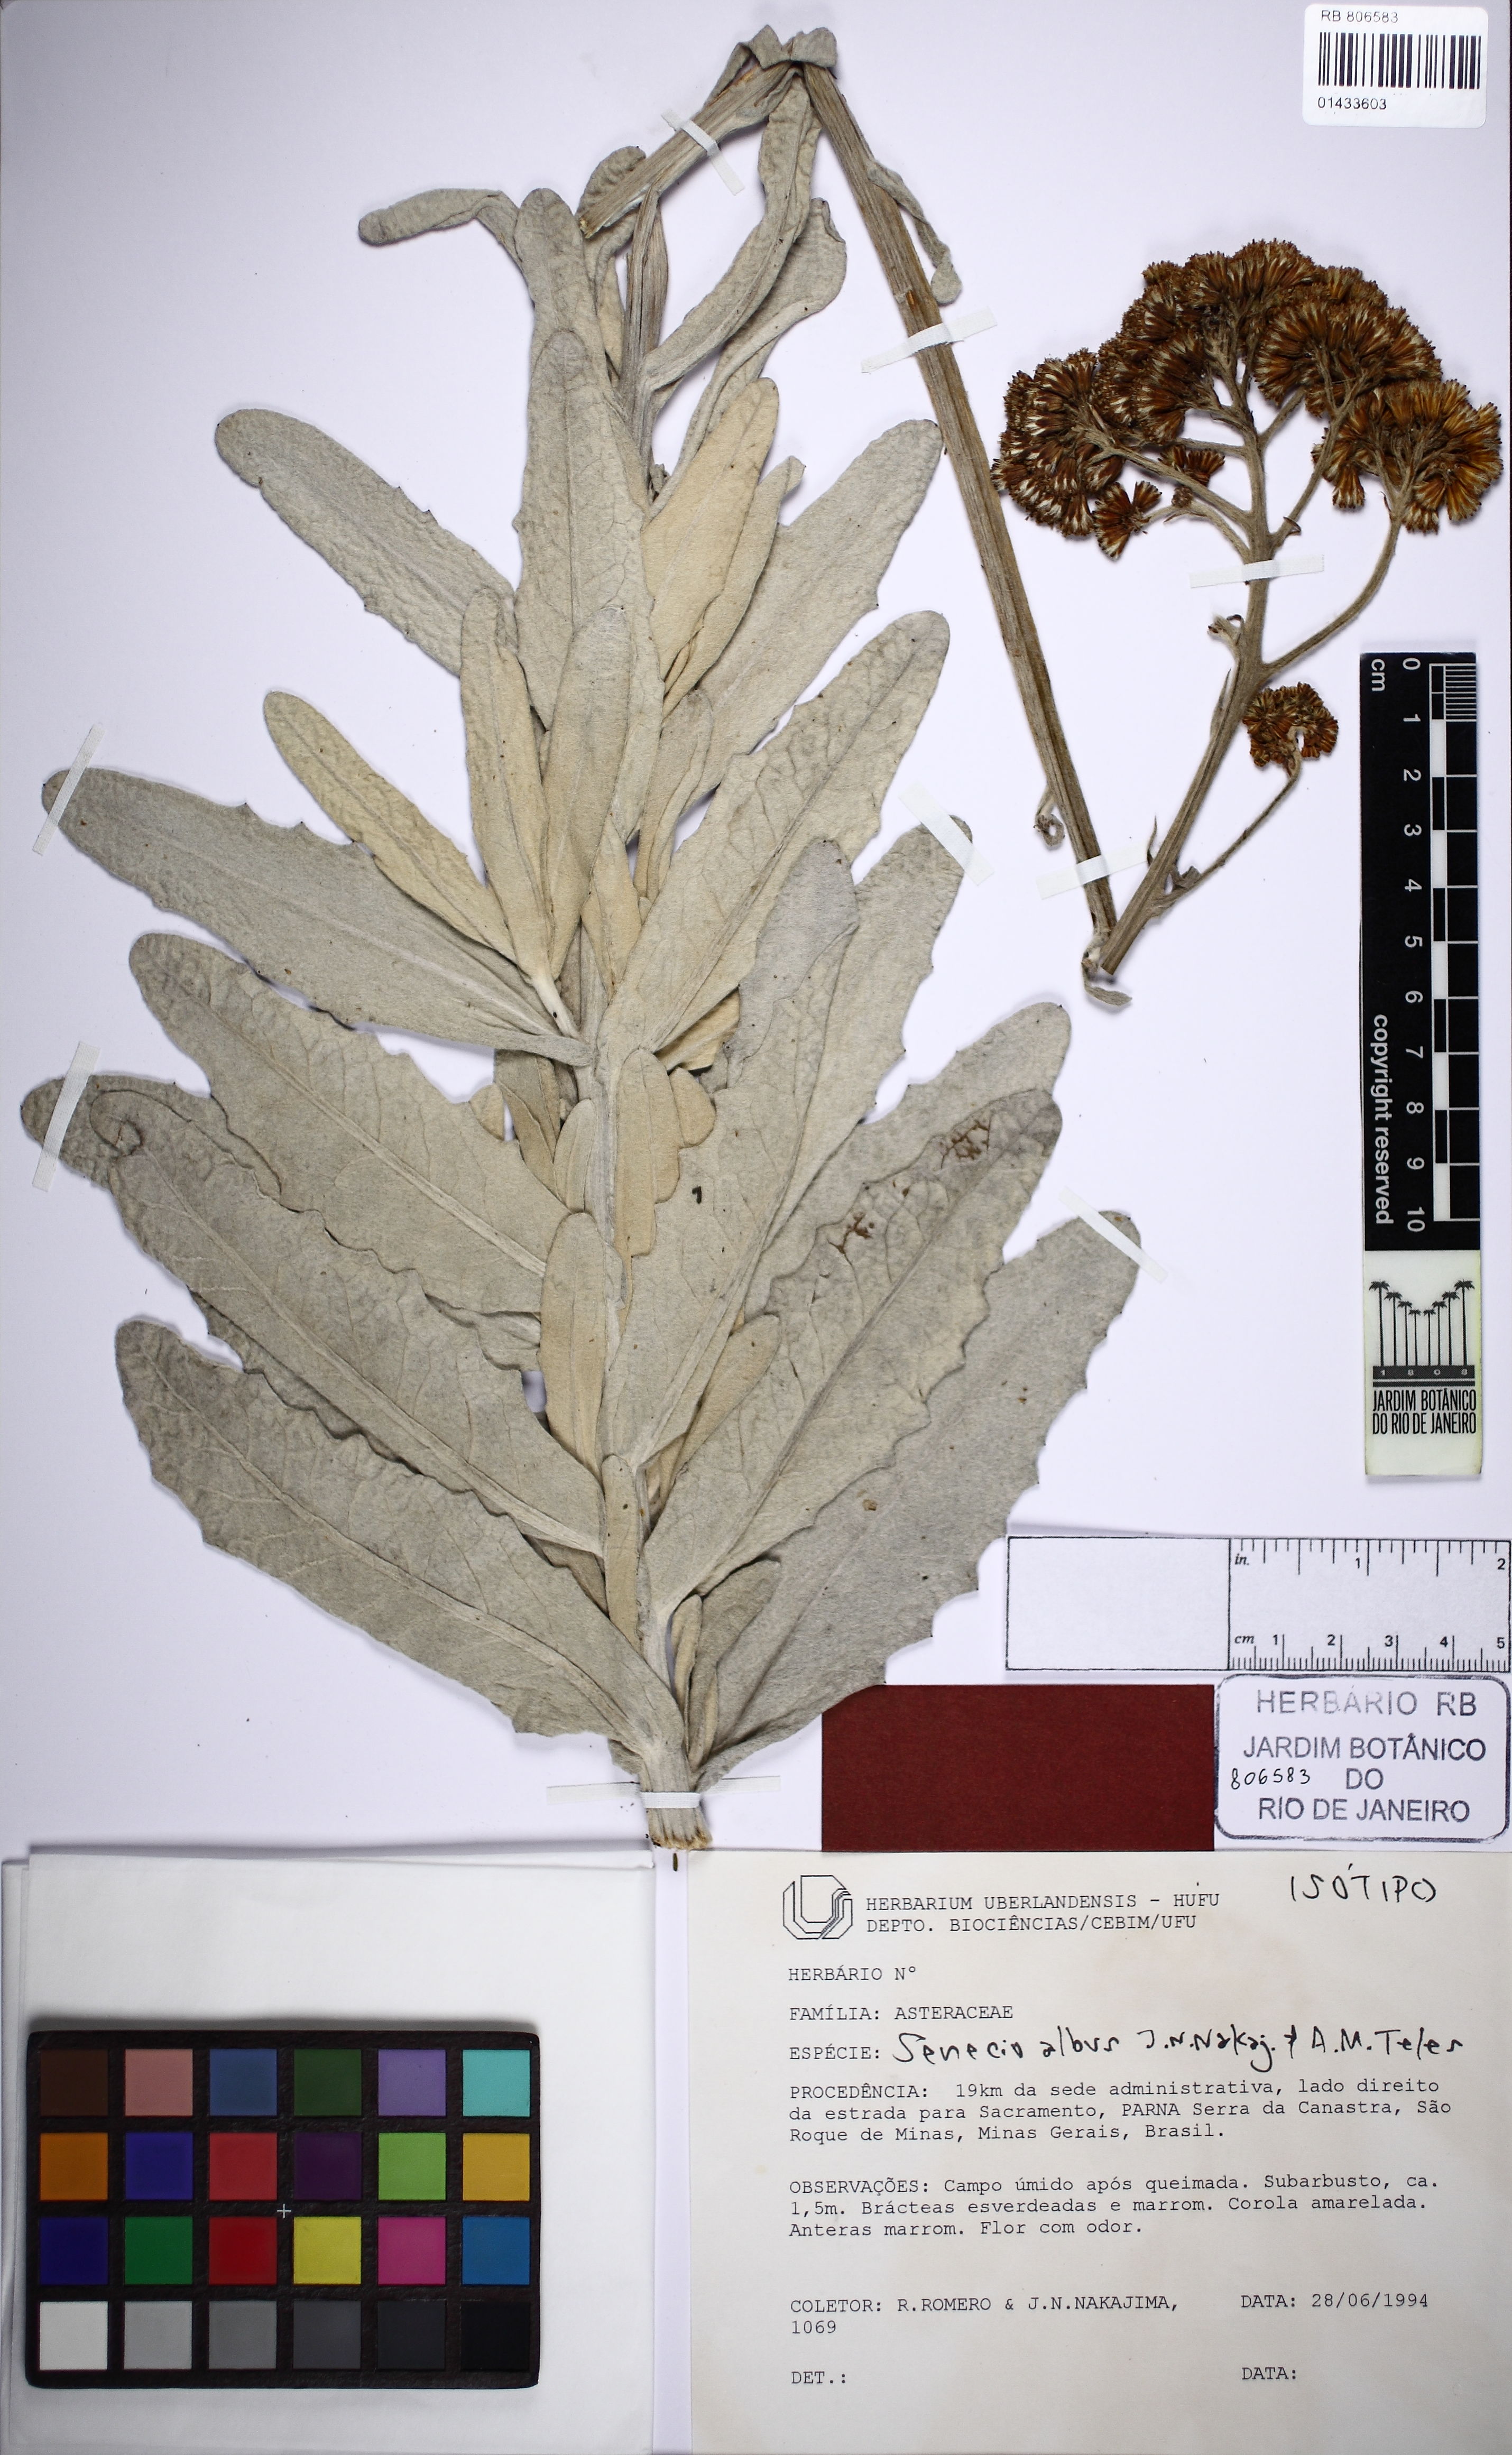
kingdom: Plantae
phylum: Tracheophyta
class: Magnoliopsida
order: Asterales
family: Asteraceae
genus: Senecio
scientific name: Senecio albus
